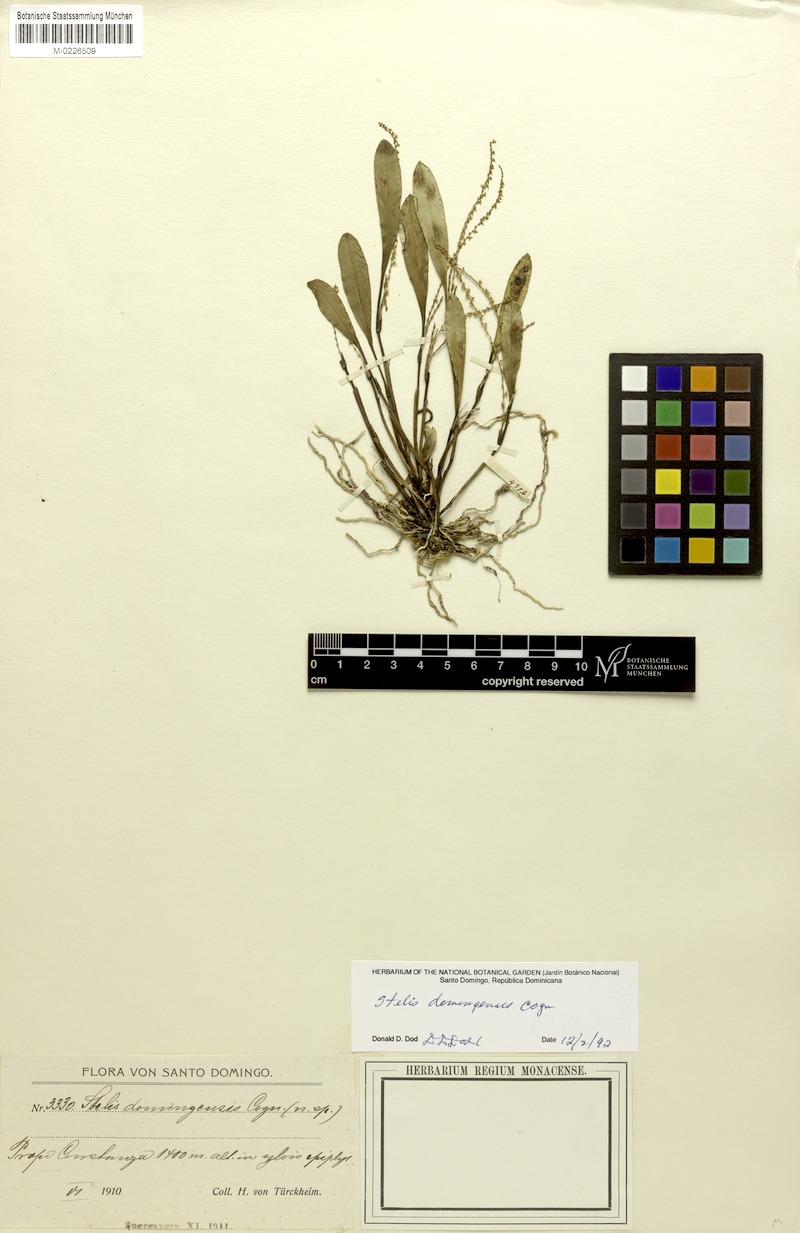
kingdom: Plantae
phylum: Tracheophyta
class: Liliopsida
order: Asparagales
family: Orchidaceae
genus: Stelis
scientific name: Stelis domingensis
